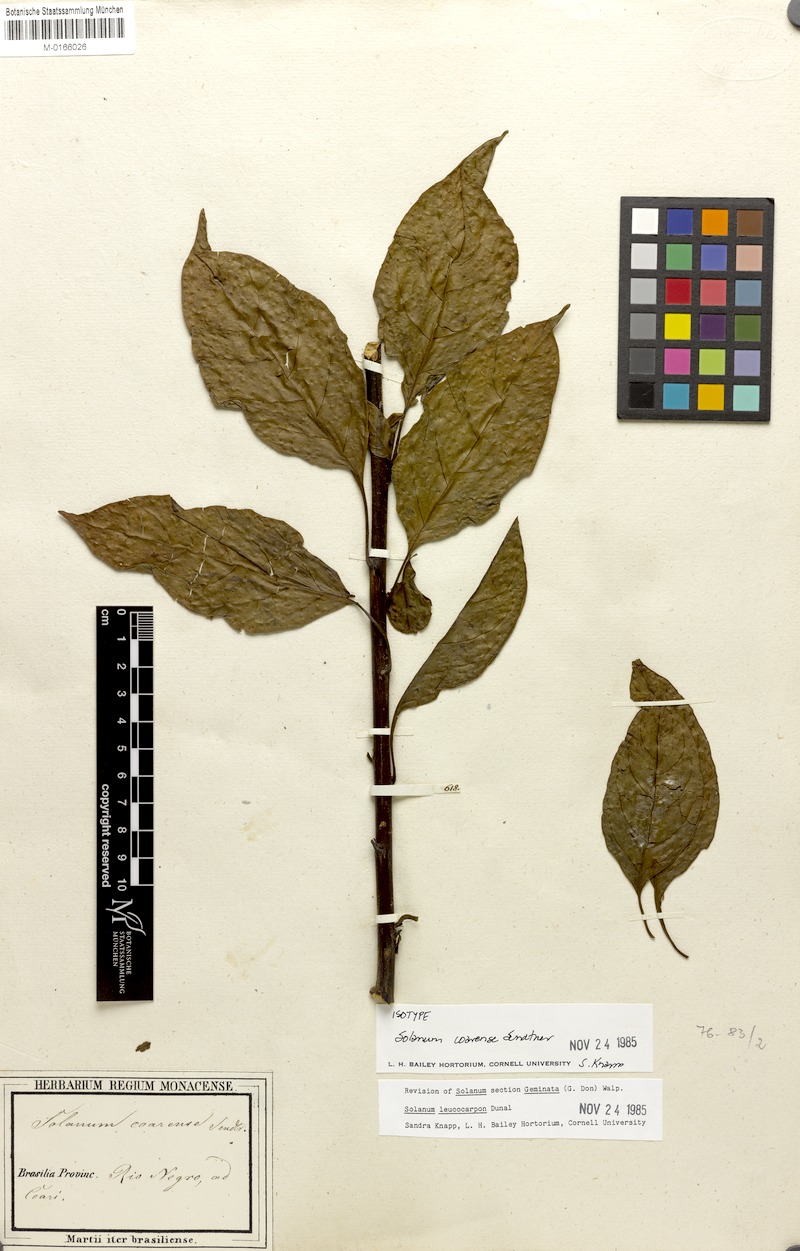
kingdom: Plantae
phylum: Tracheophyta
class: Magnoliopsida
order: Solanales
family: Solanaceae
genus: Solanum
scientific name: Solanum leucocarpon
